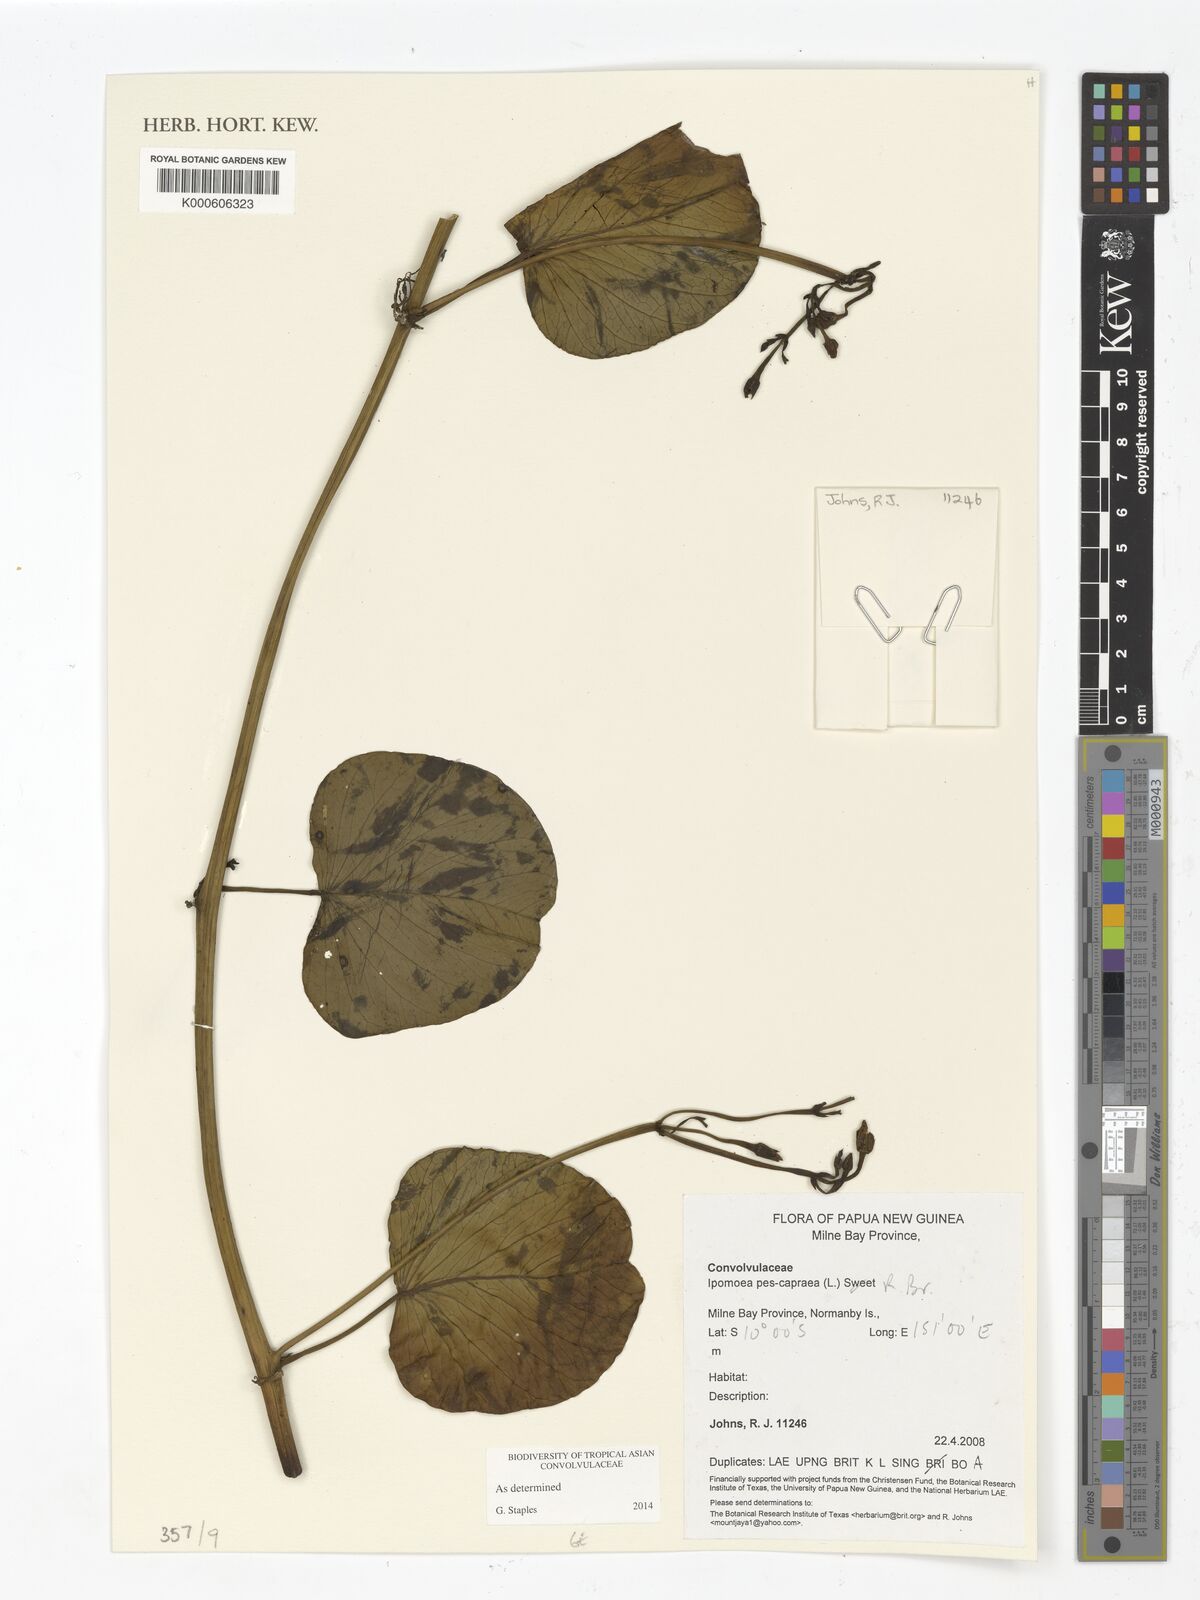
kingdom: Plantae
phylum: Tracheophyta
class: Magnoliopsida
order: Solanales
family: Convolvulaceae
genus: Ipomoea
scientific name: Ipomoea
